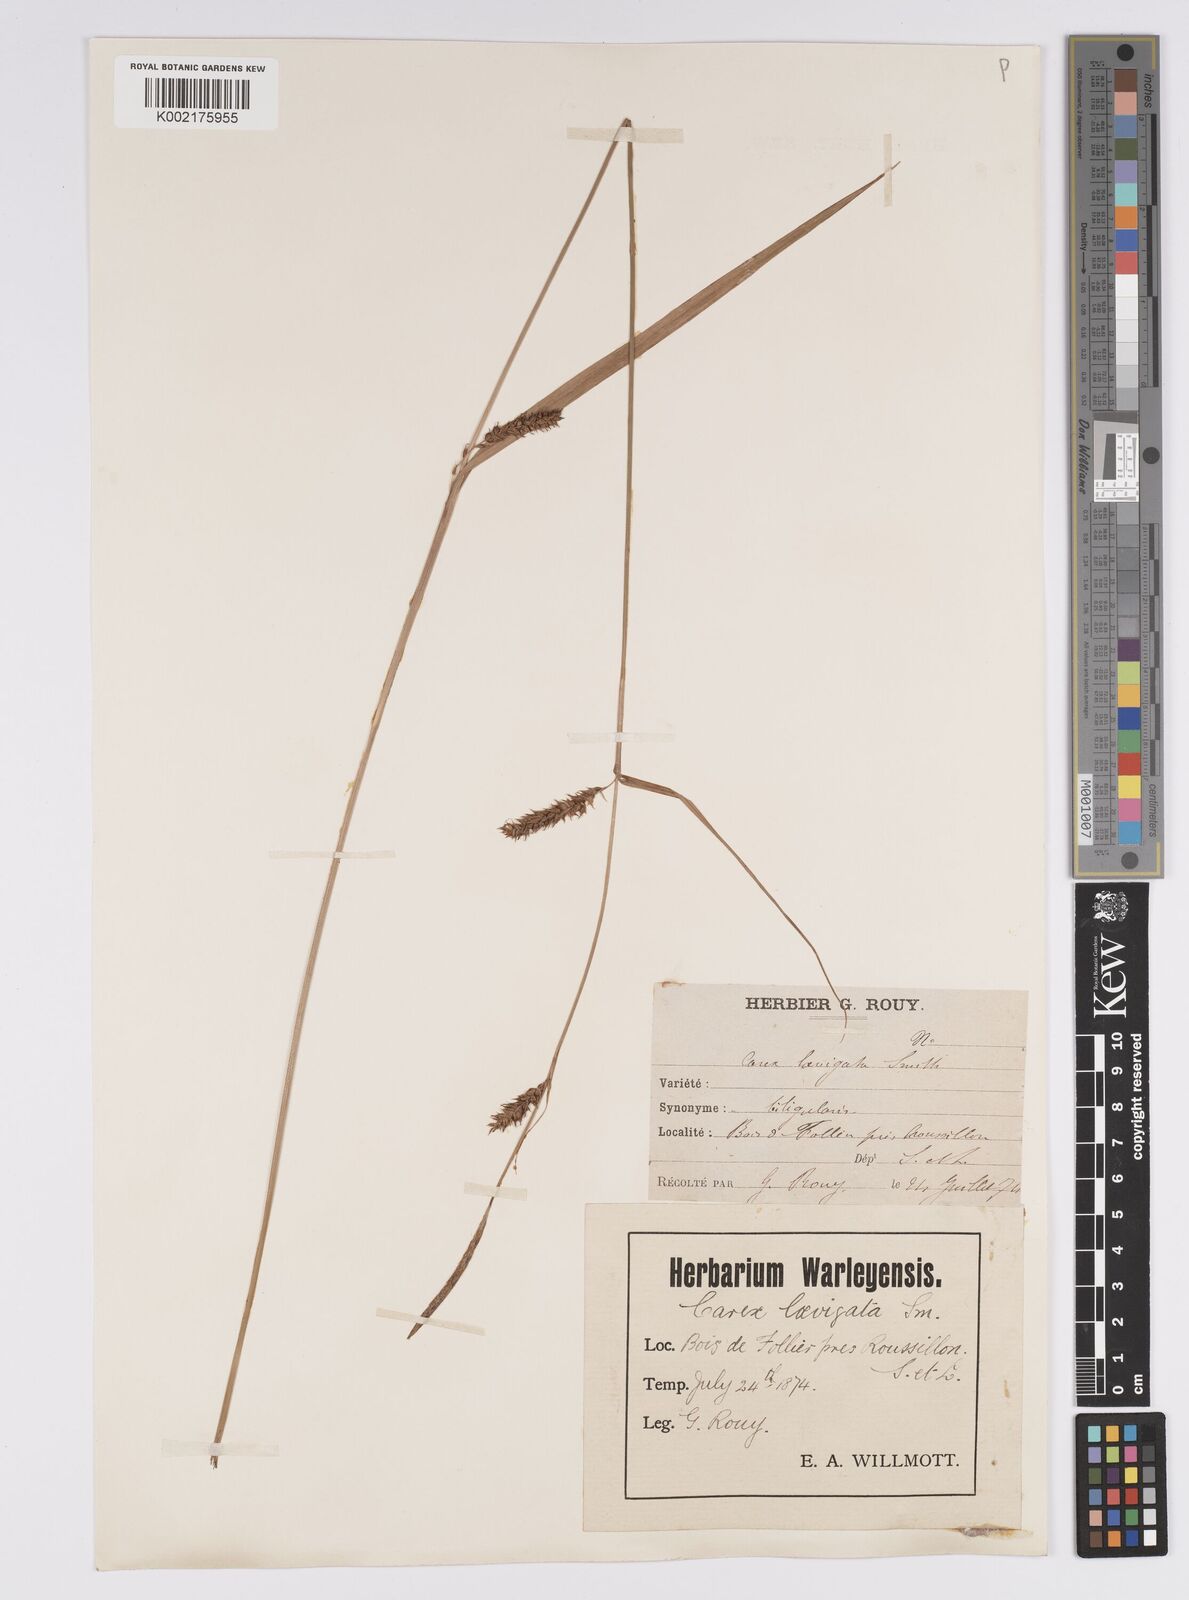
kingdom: Plantae
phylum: Tracheophyta
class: Liliopsida
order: Poales
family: Cyperaceae
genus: Carex
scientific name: Carex laevigata
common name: Smooth-stalked sedge
